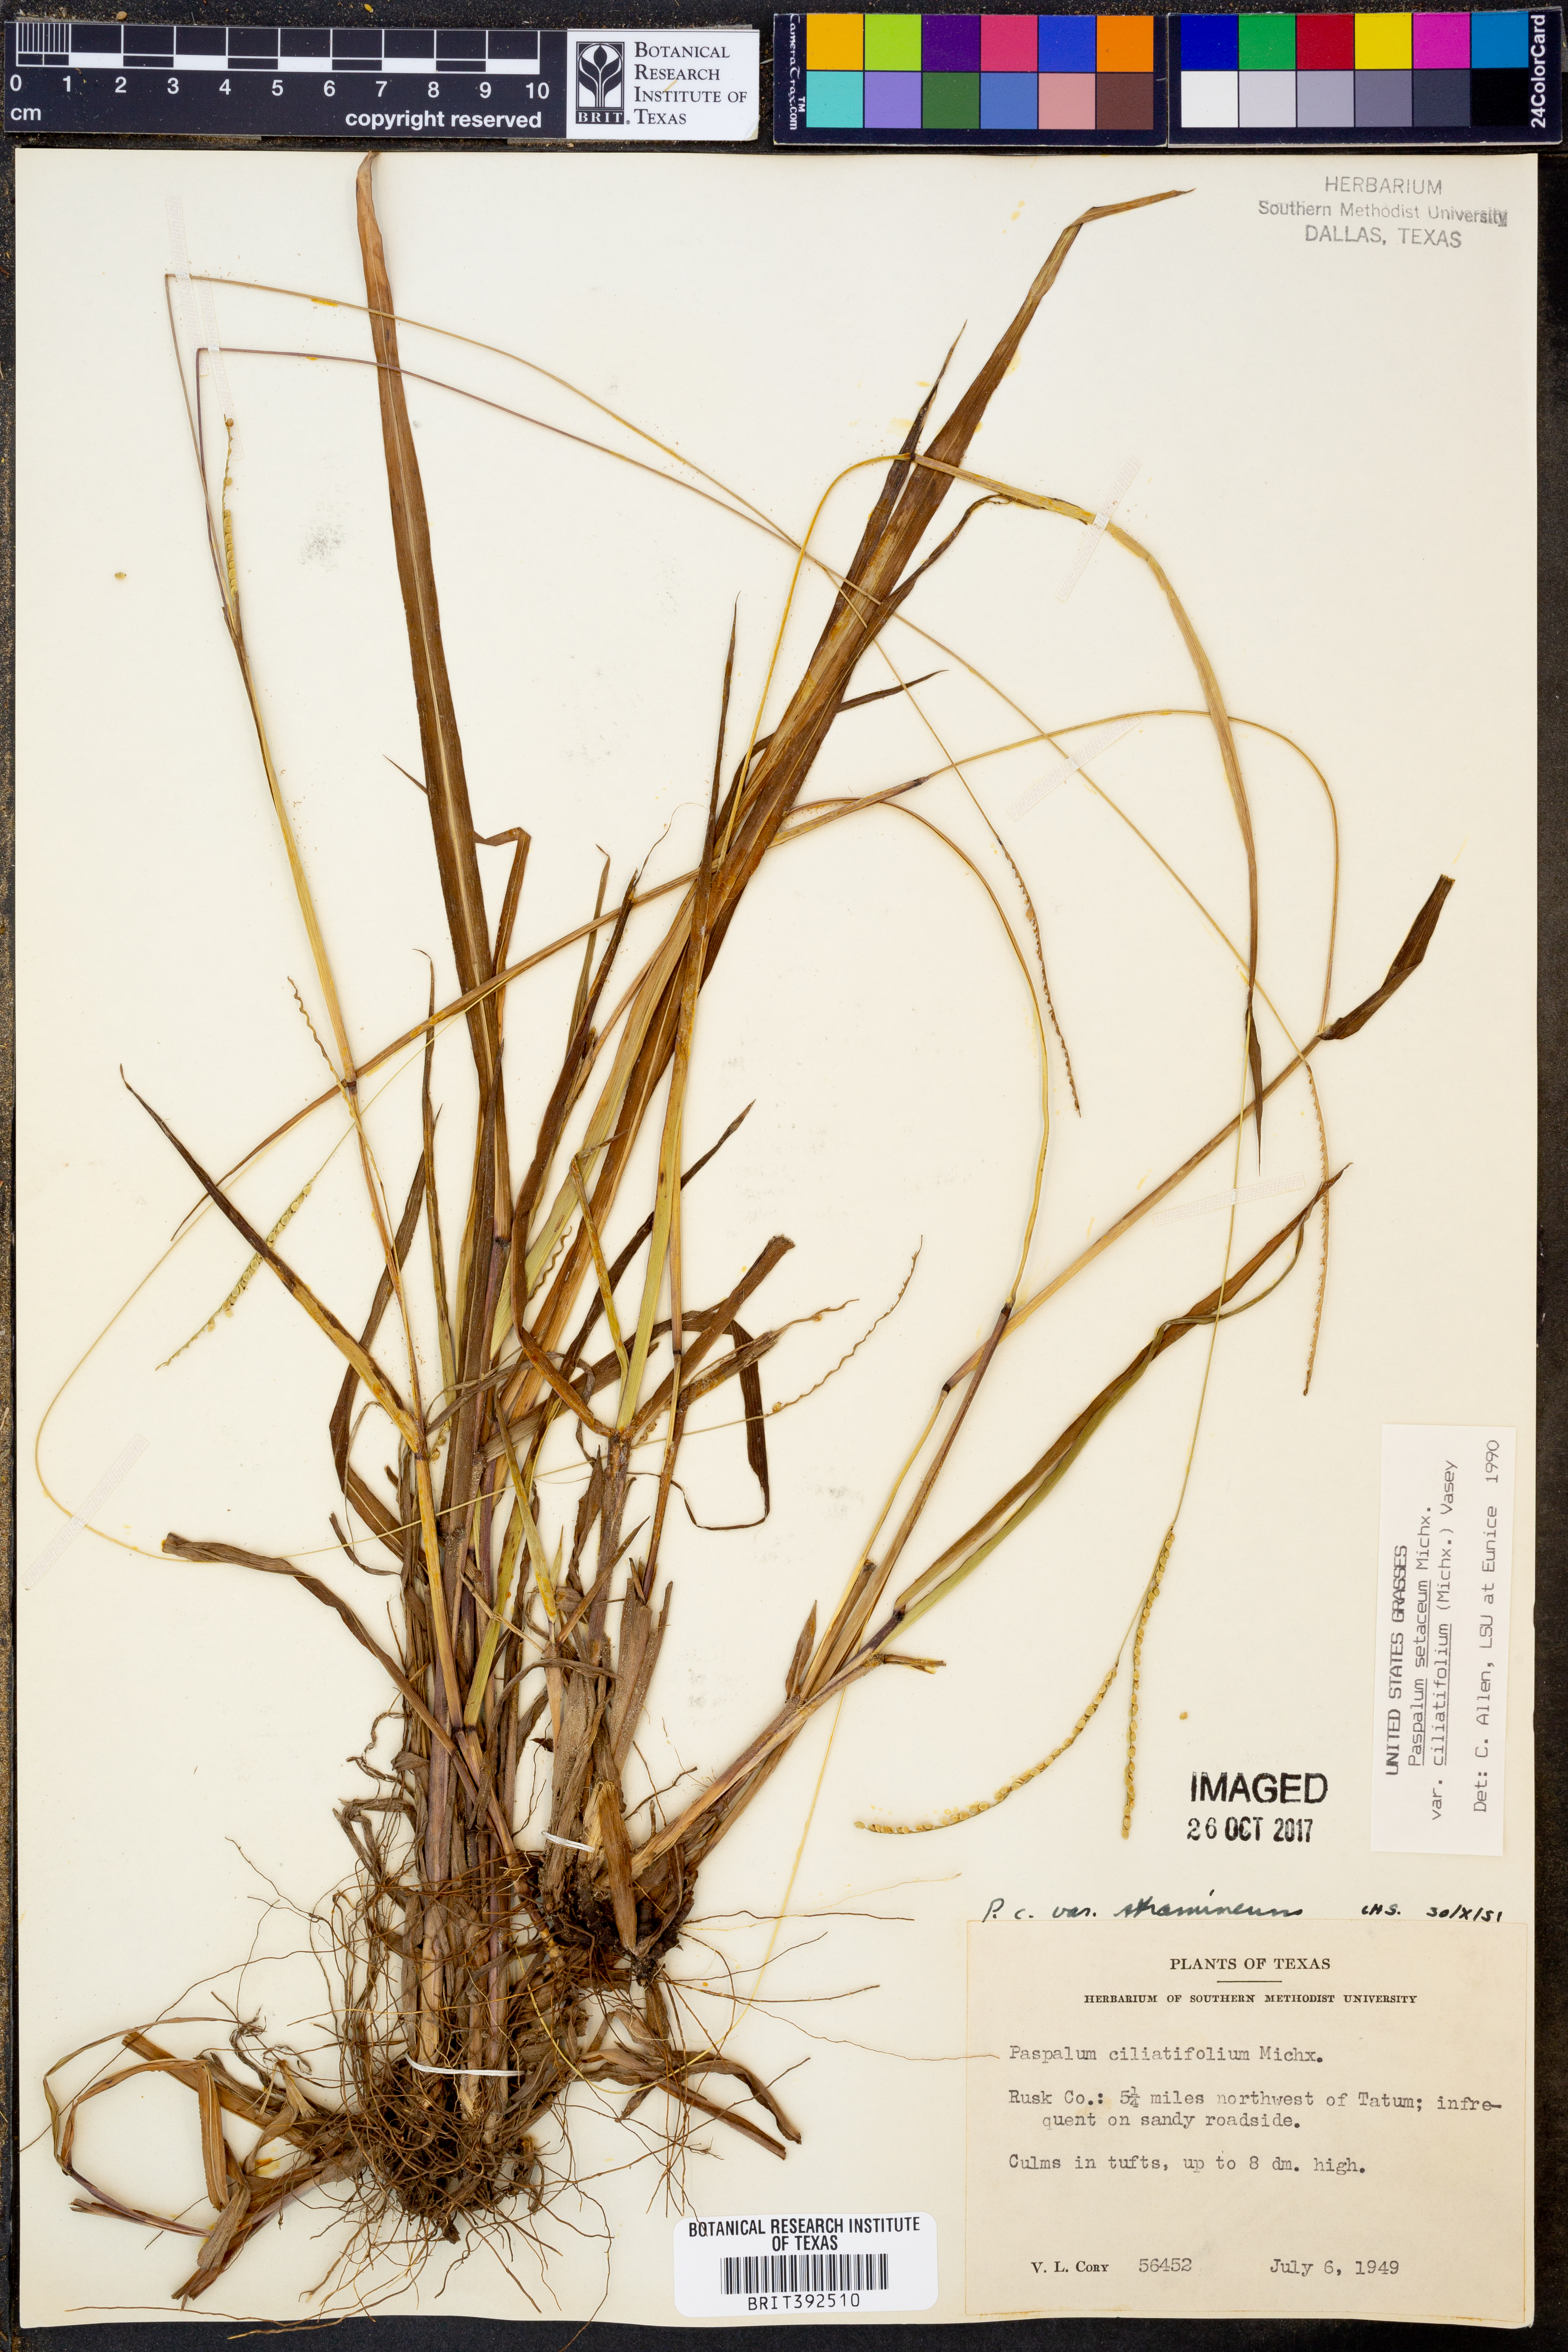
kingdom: Plantae
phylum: Tracheophyta
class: Liliopsida
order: Poales
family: Poaceae
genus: Paspalum
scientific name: Paspalum setaceum
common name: Slender paspalum
